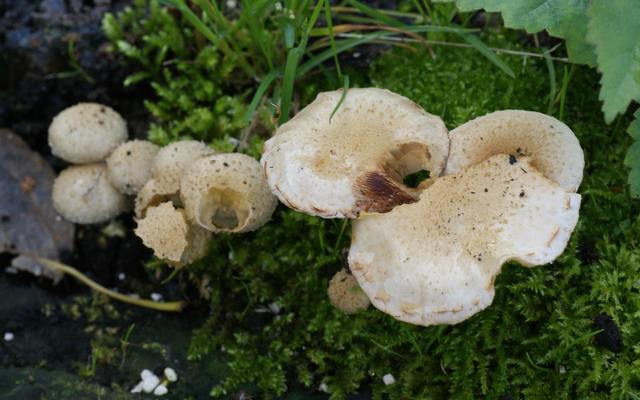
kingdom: Fungi
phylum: Basidiomycota
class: Agaricomycetes
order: Agaricales
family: Strophariaceae
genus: Pholiota
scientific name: Pholiota gummosa
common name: grøngul skælhat
